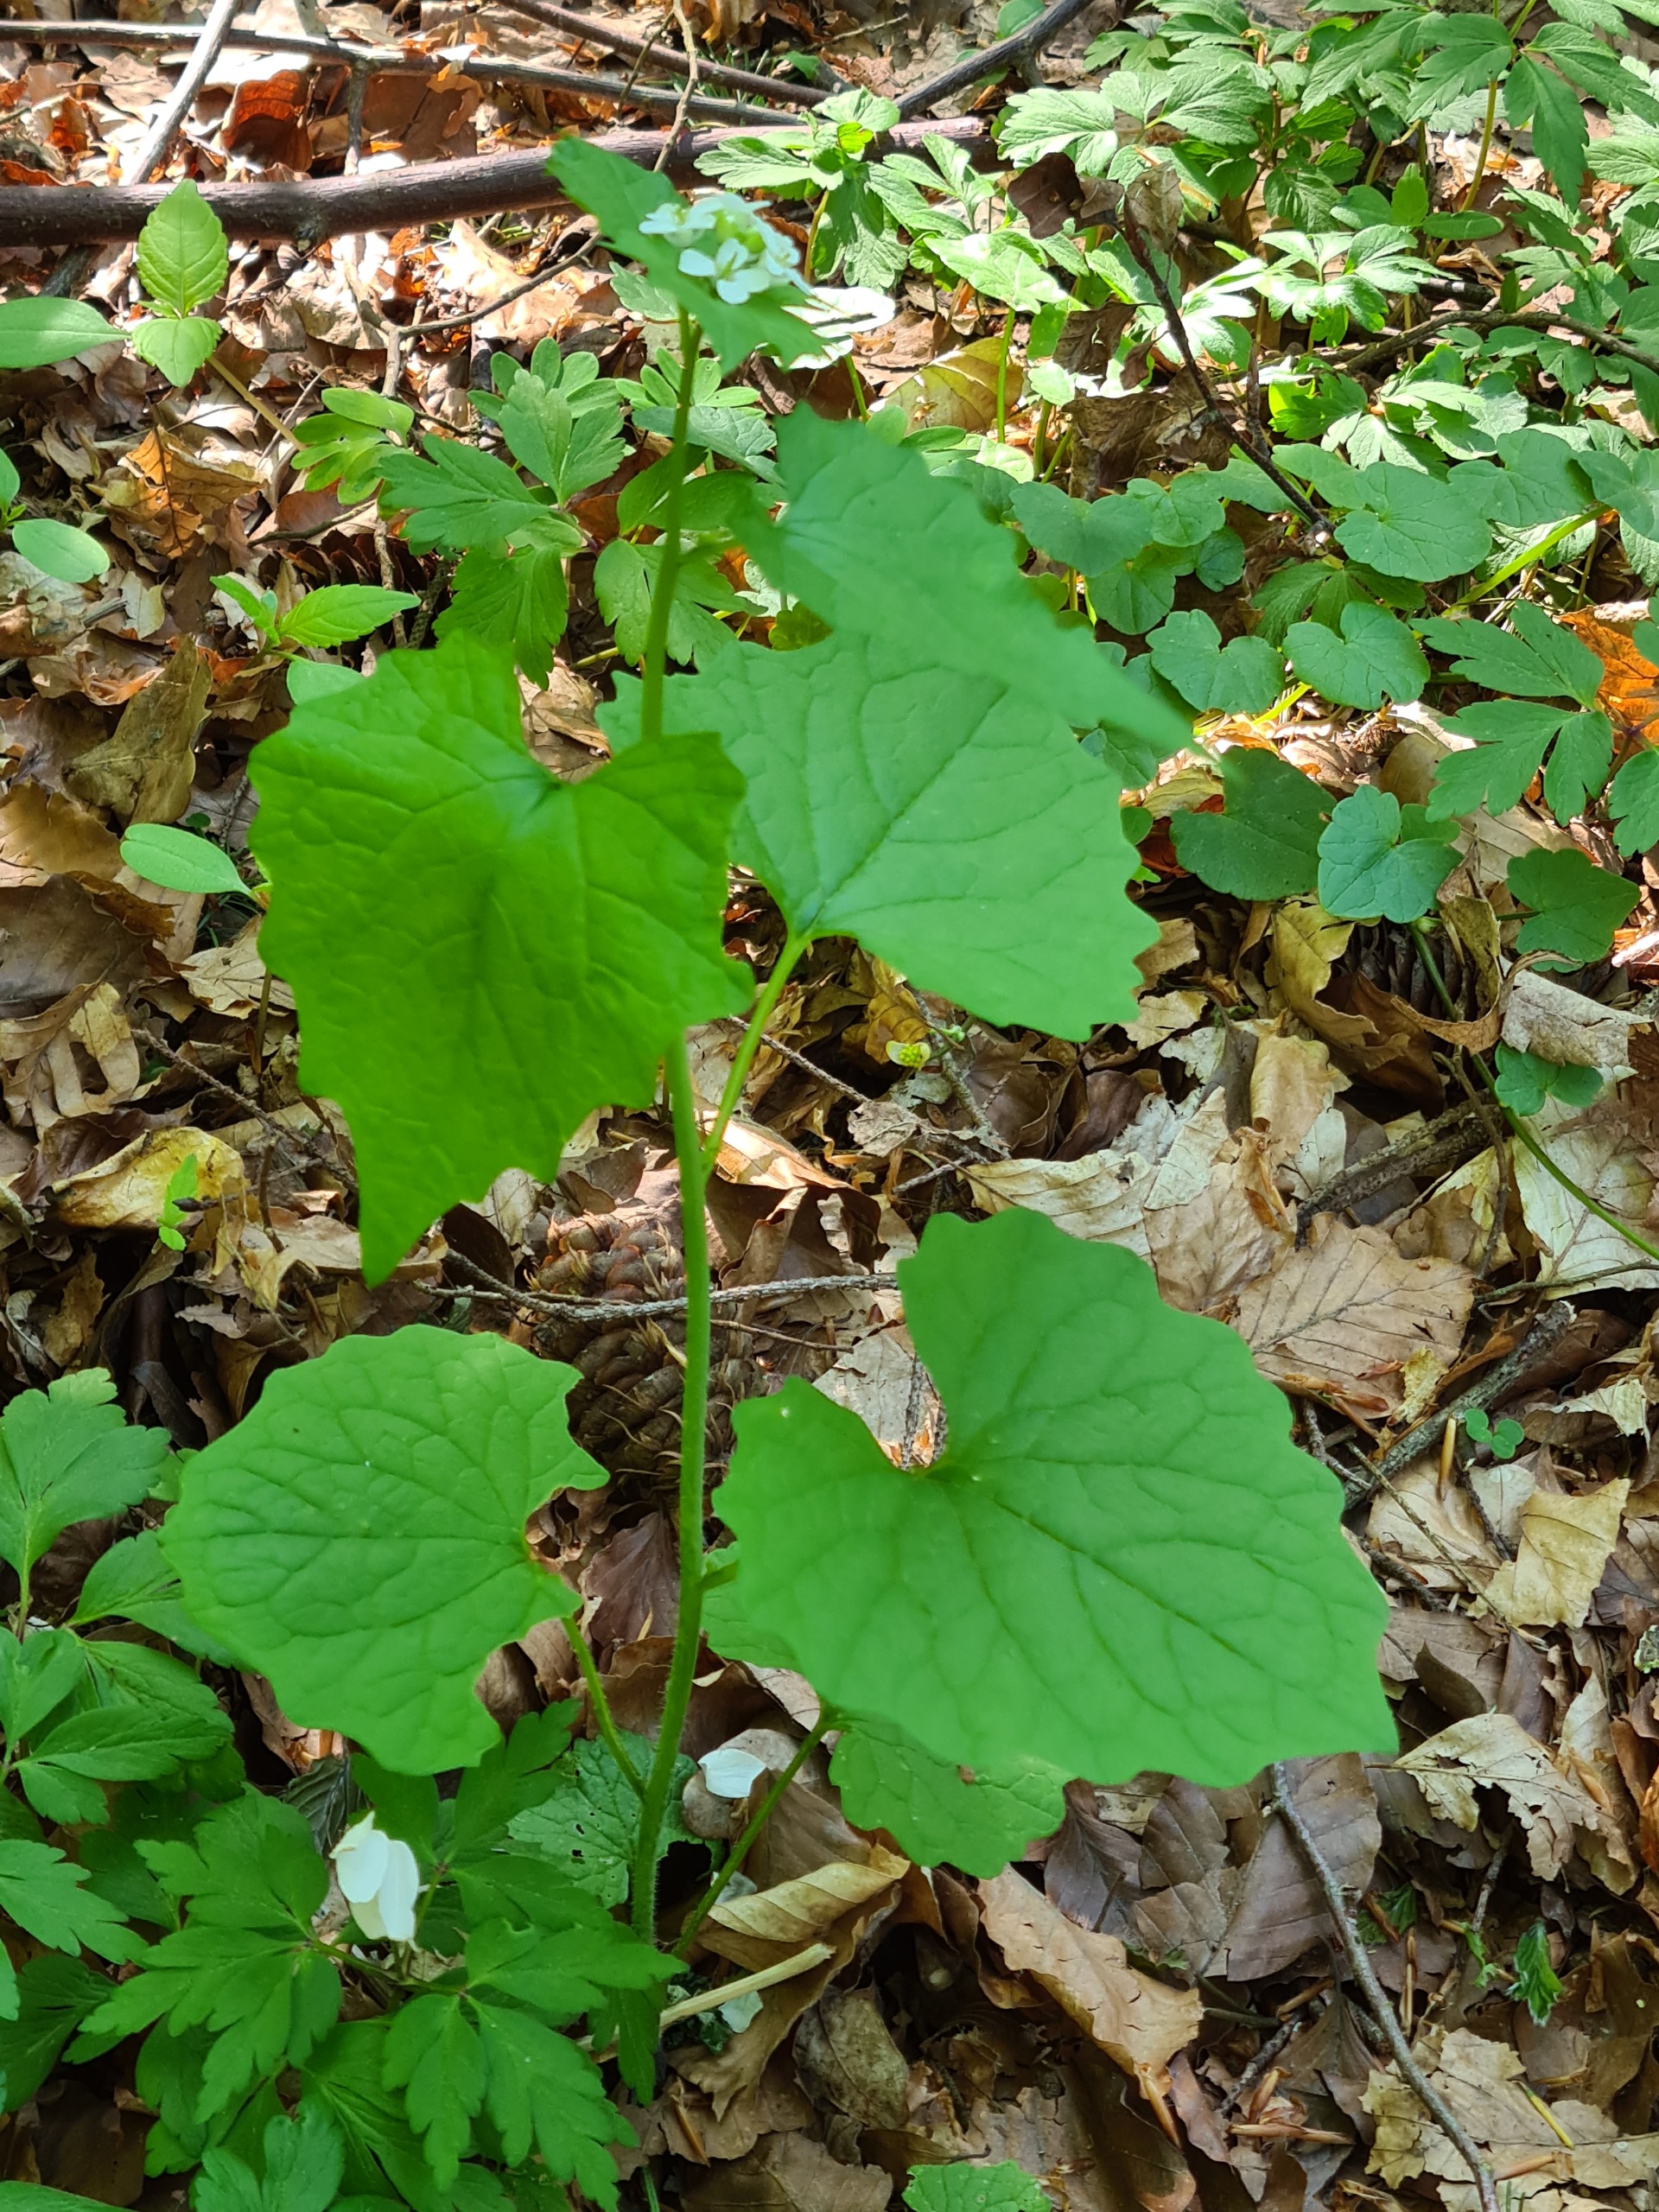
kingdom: Plantae
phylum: Tracheophyta
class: Magnoliopsida
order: Brassicales
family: Brassicaceae
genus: Alliaria
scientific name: Alliaria petiolata
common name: Løgkarse
